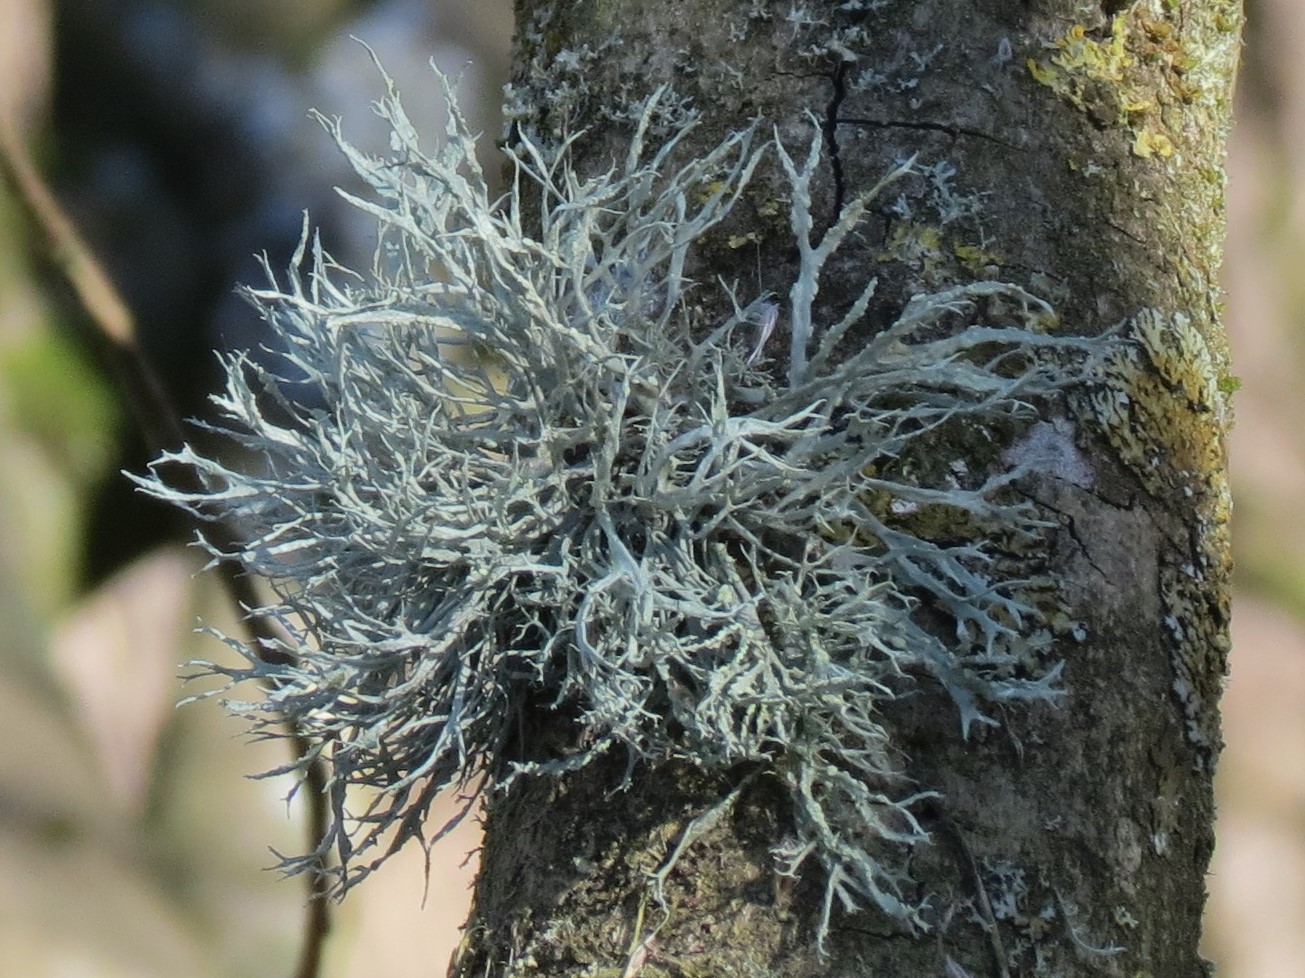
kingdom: Fungi
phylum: Ascomycota
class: Lecanoromycetes
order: Lecanorales
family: Ramalinaceae
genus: Ramalina
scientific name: Ramalina farinacea
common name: melet grenlav
